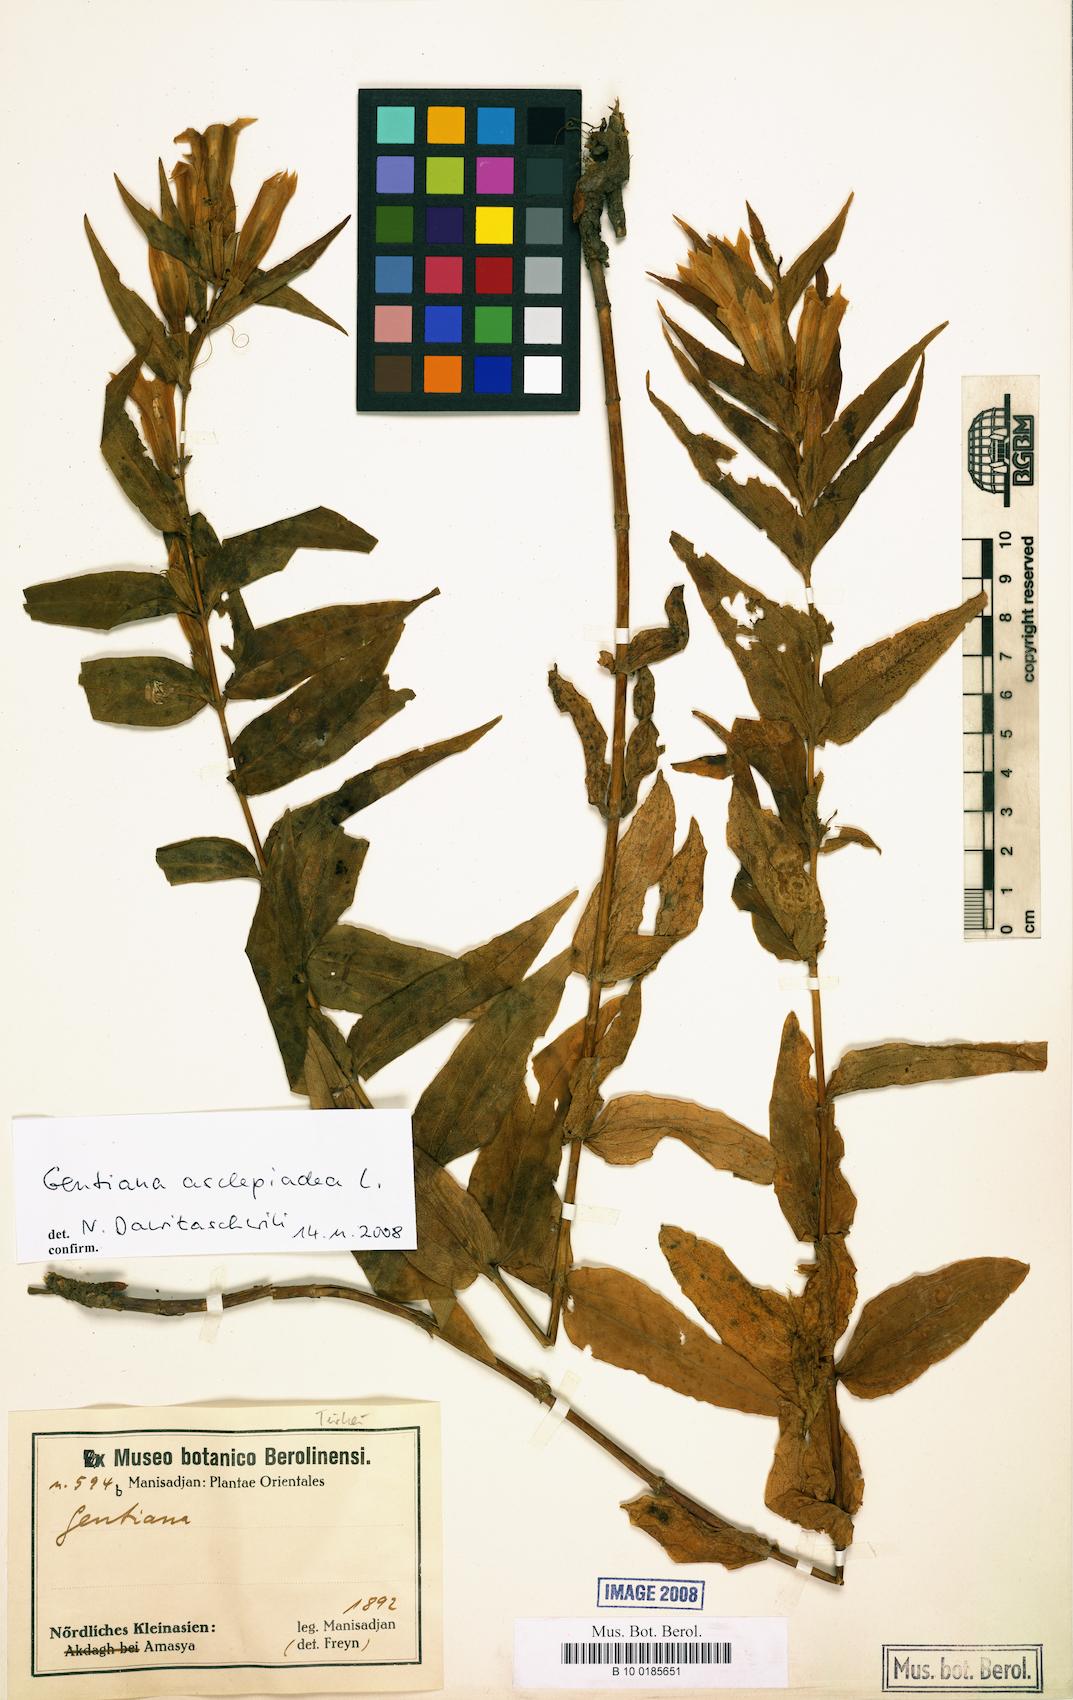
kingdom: Plantae
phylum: Tracheophyta
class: Magnoliopsida
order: Gentianales
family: Gentianaceae
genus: Gentiana
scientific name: Gentiana asclepiadea
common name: Willow gentian
